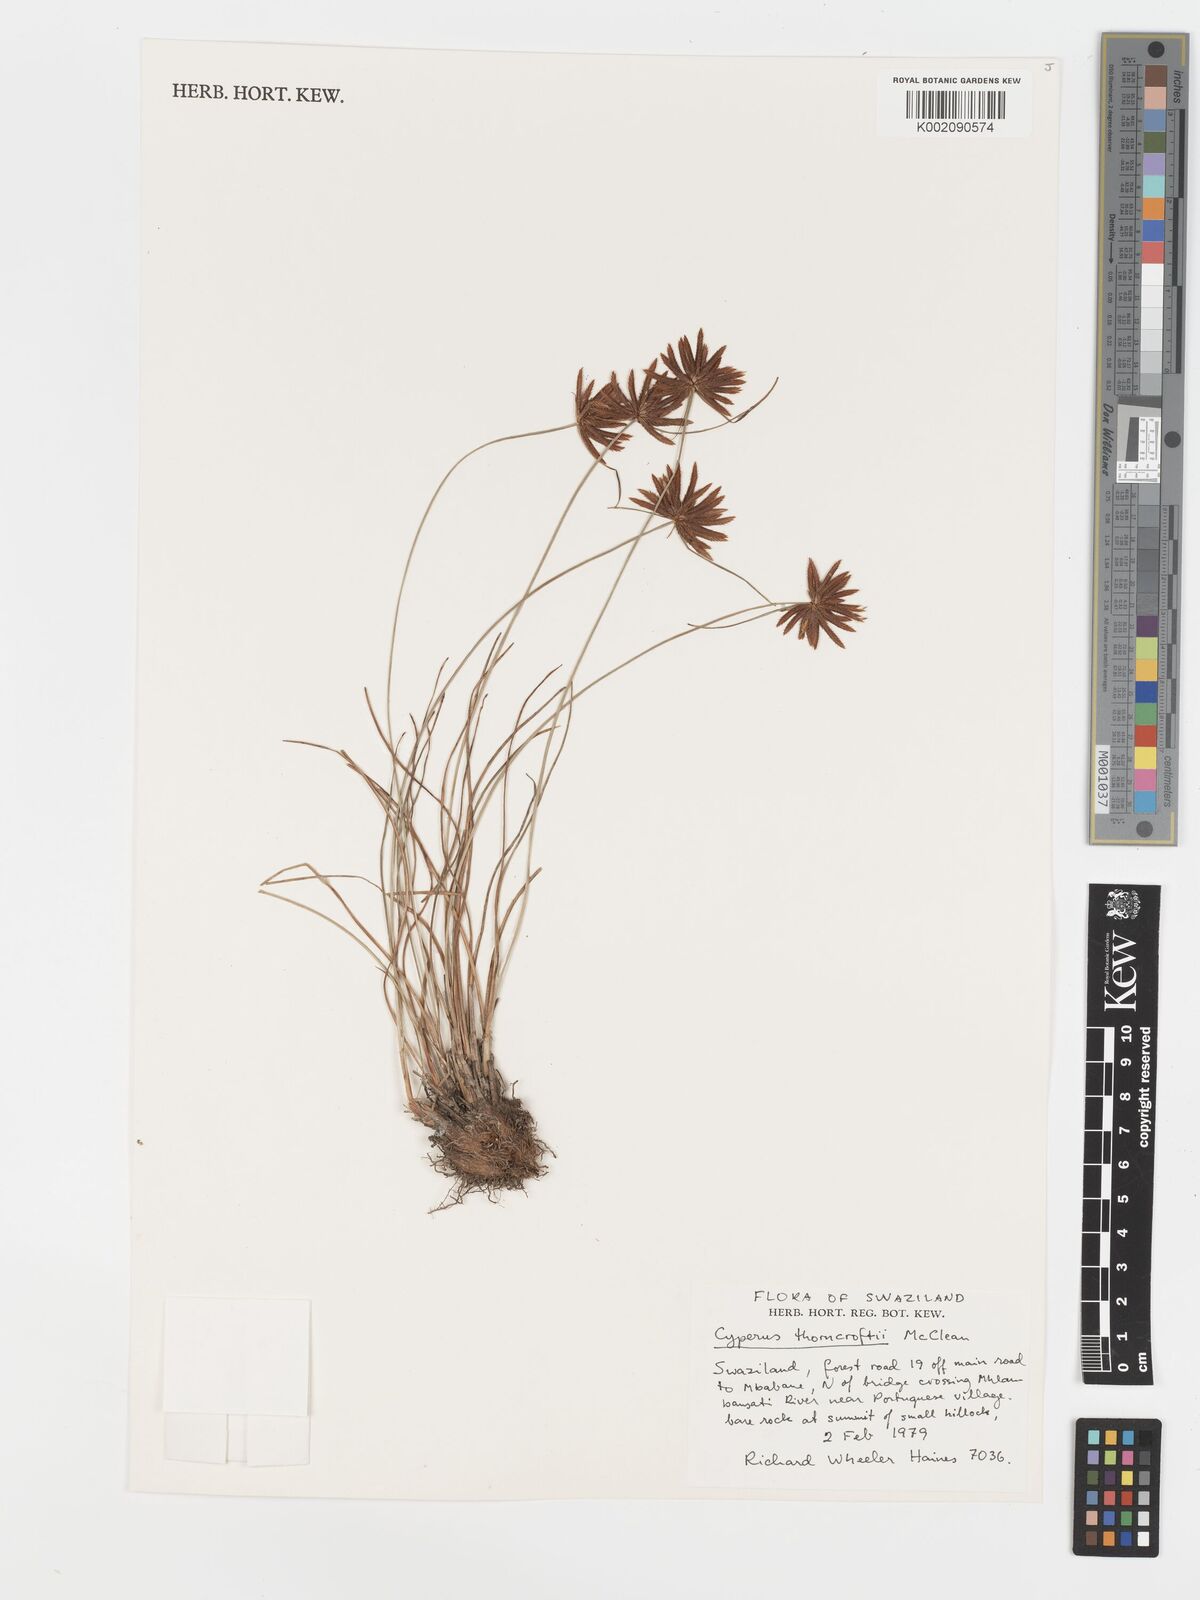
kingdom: Plantae
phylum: Tracheophyta
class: Liliopsida
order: Poales
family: Cyperaceae
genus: Cyperus
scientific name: Cyperus thorncroftii
